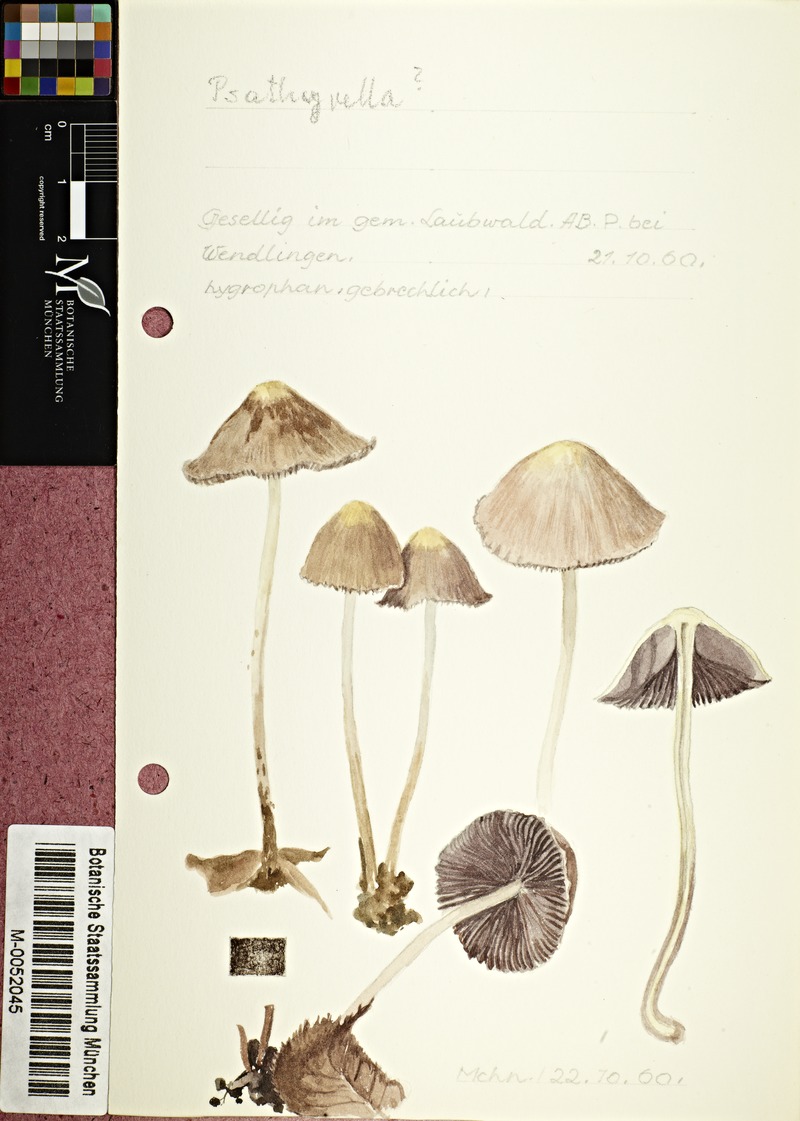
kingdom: Fungi
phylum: Basidiomycota
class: Agaricomycetes
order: Agaricales
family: Psathyrellaceae
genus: Psathyrella
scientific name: Psathyrella
